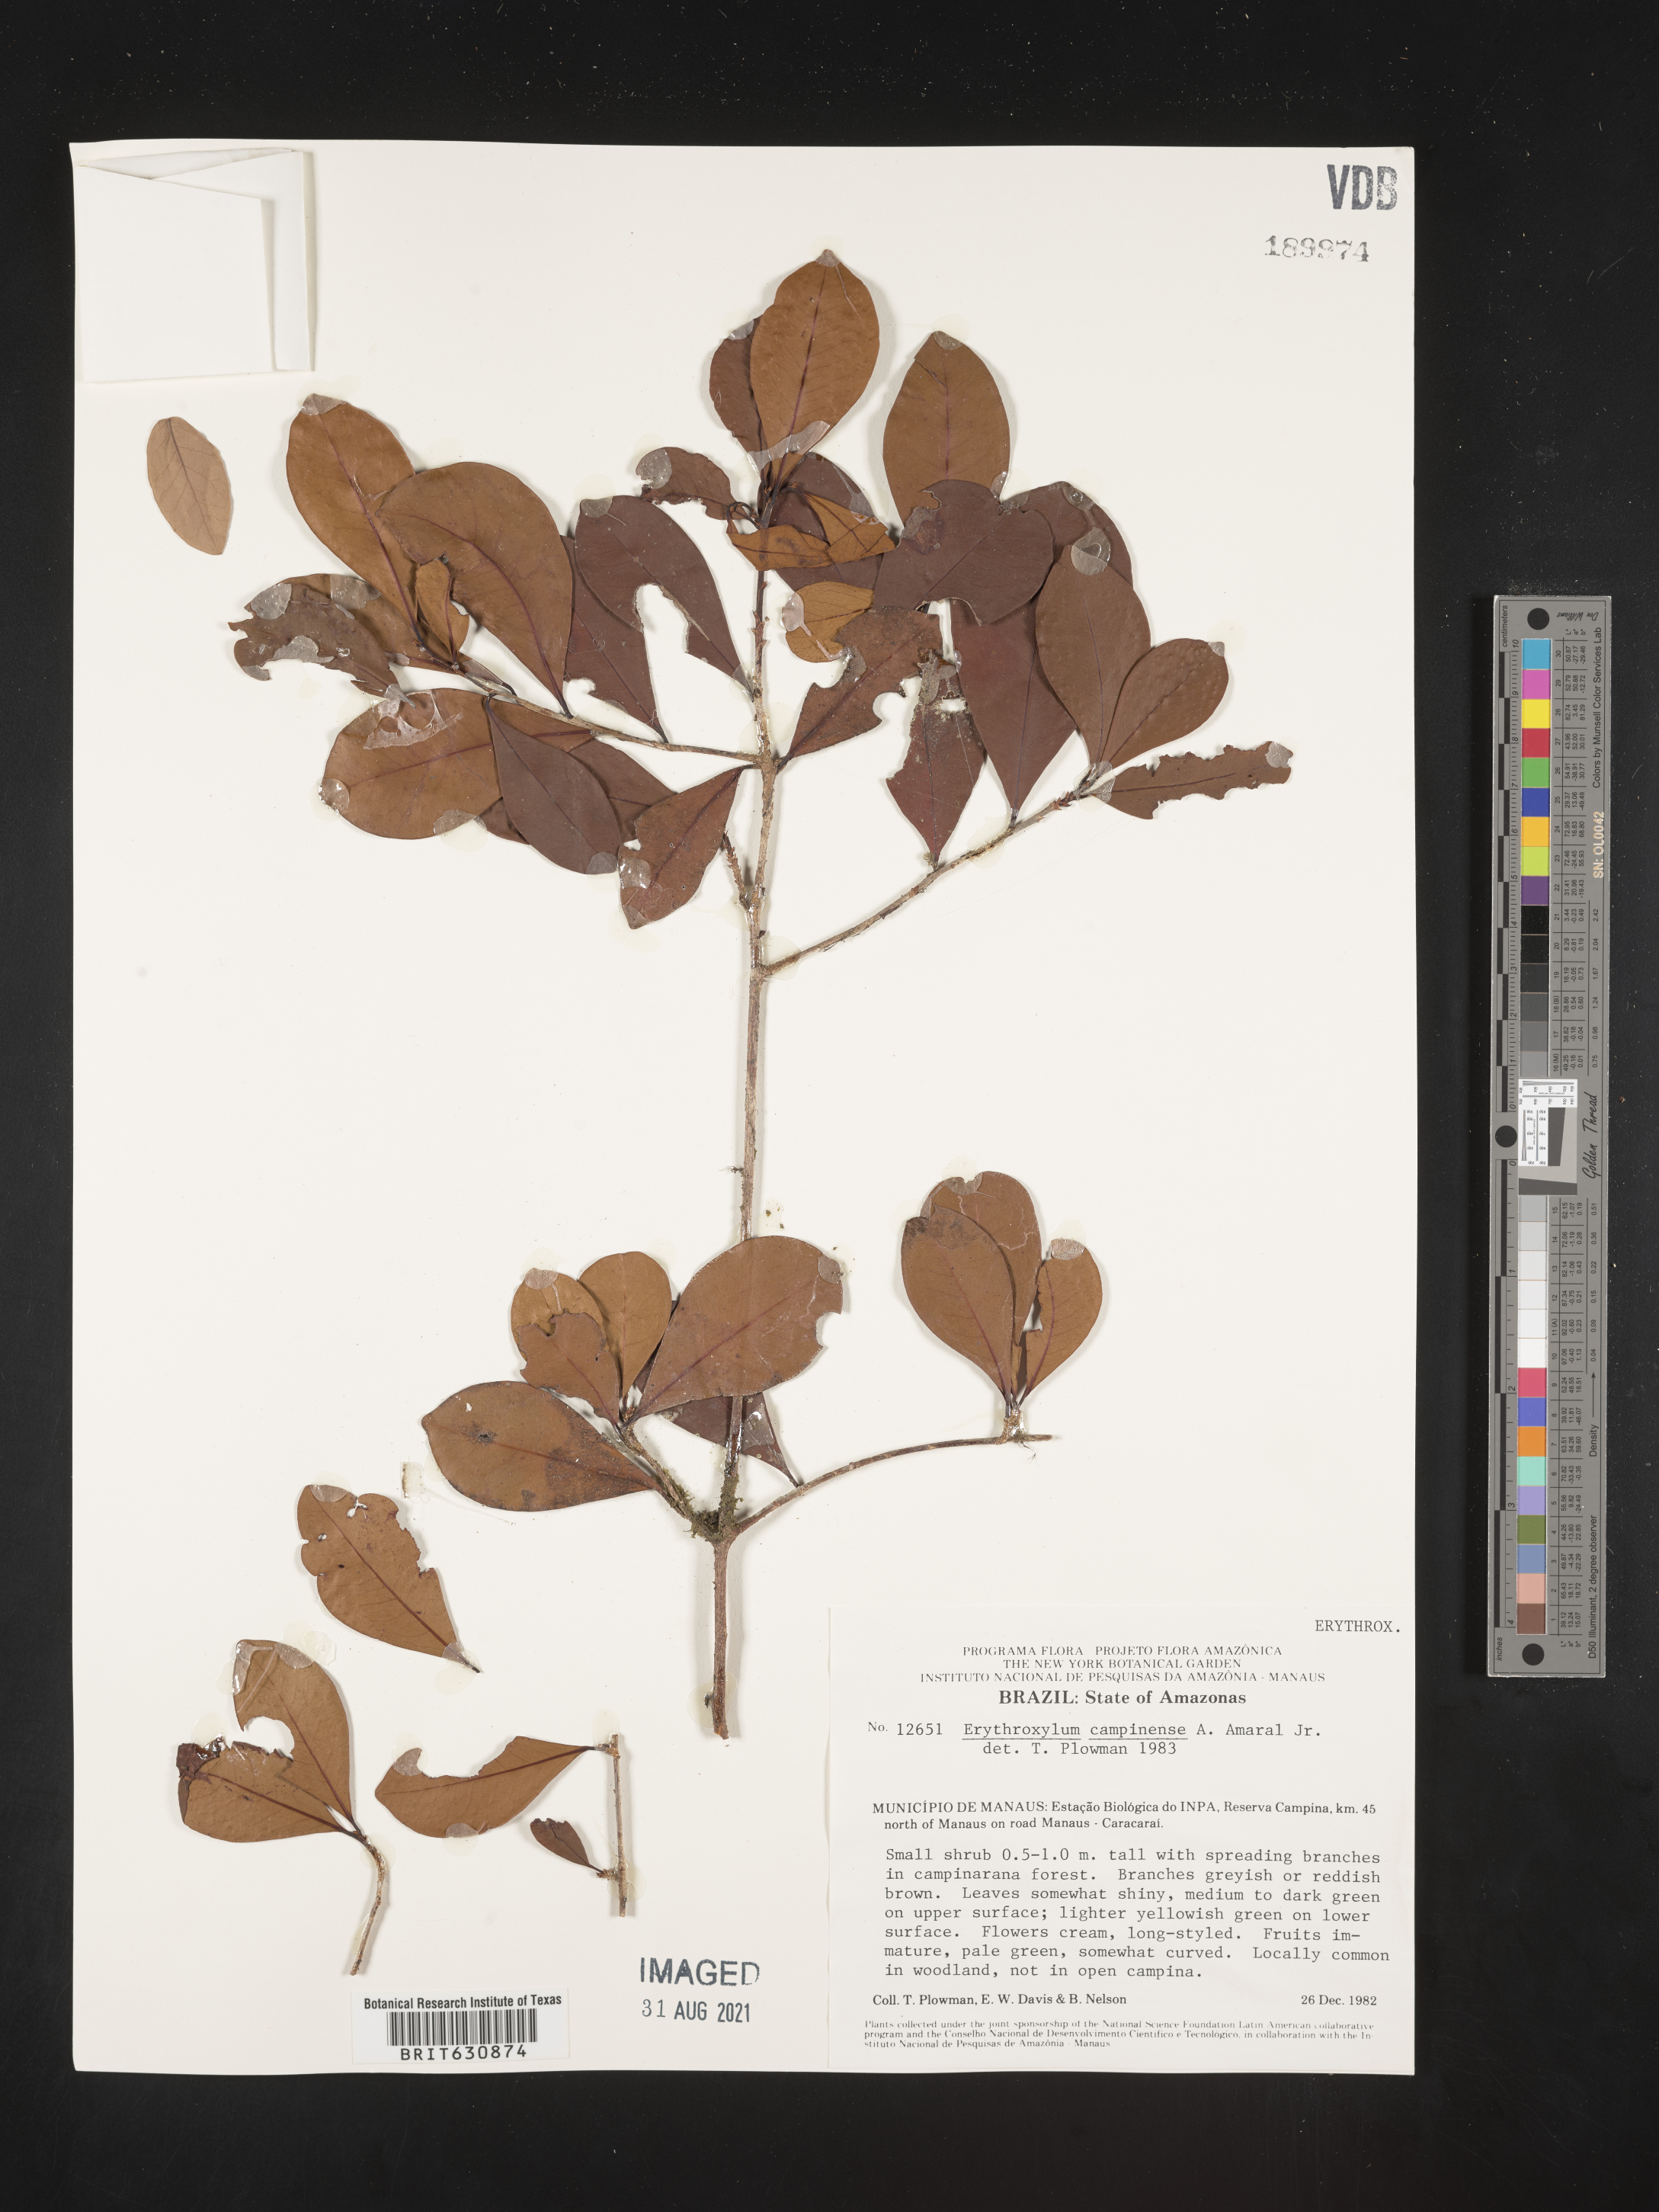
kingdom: Plantae
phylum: Tracheophyta
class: Magnoliopsida
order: Malpighiales
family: Erythroxylaceae
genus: Erythroxylum
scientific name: Erythroxylum
